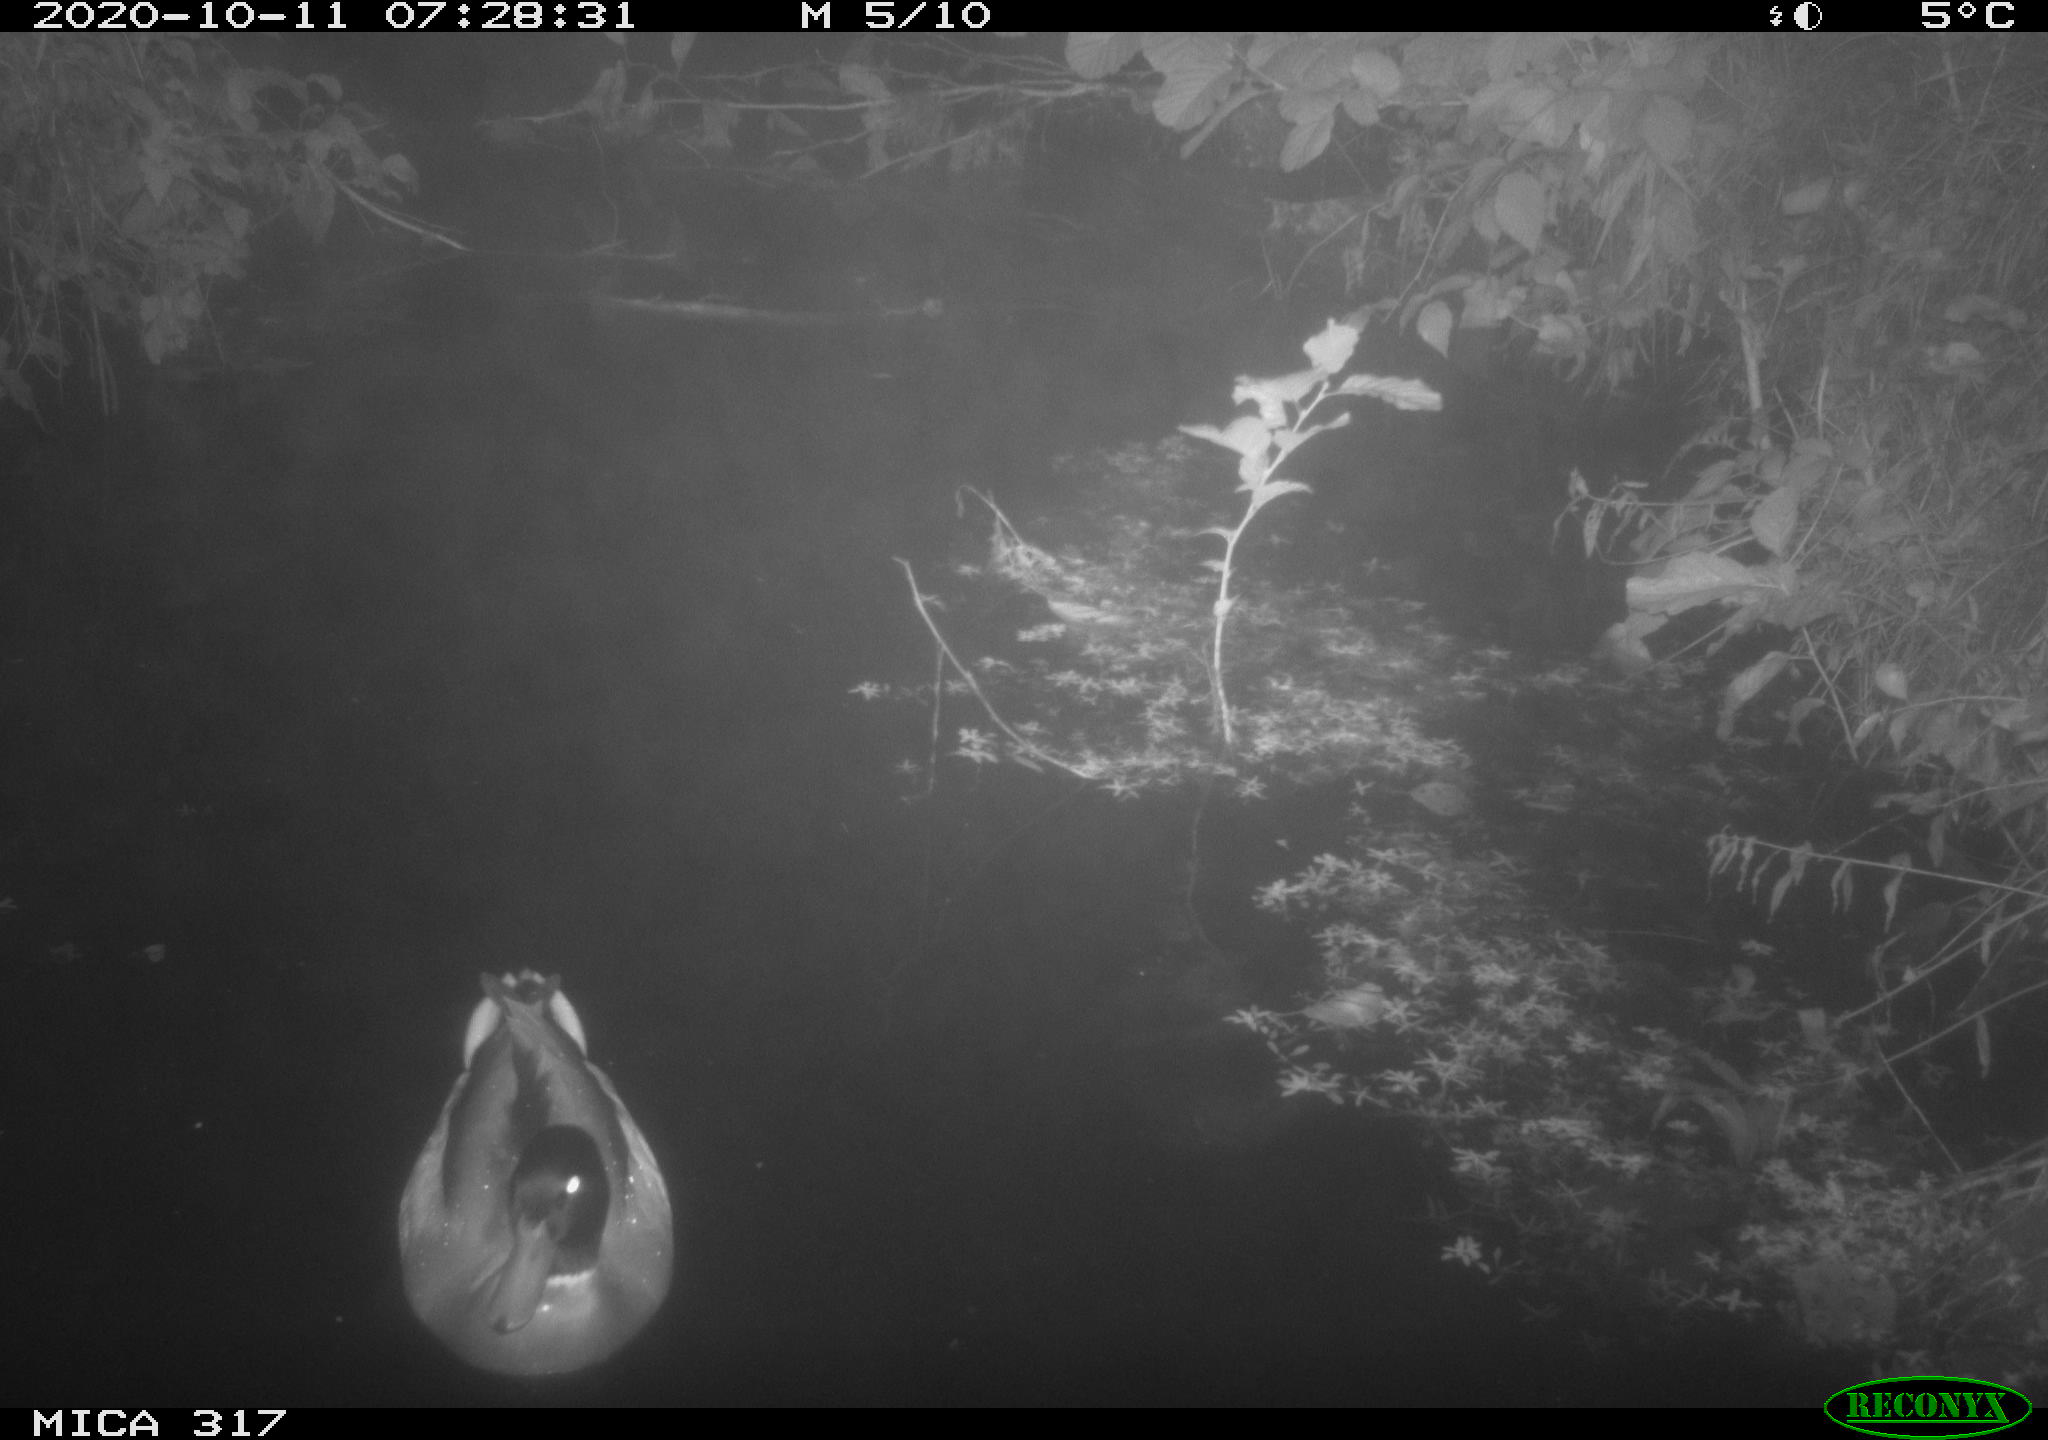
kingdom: Animalia
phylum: Chordata
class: Aves
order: Anseriformes
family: Anatidae
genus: Anas
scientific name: Anas platyrhynchos
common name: Mallard
